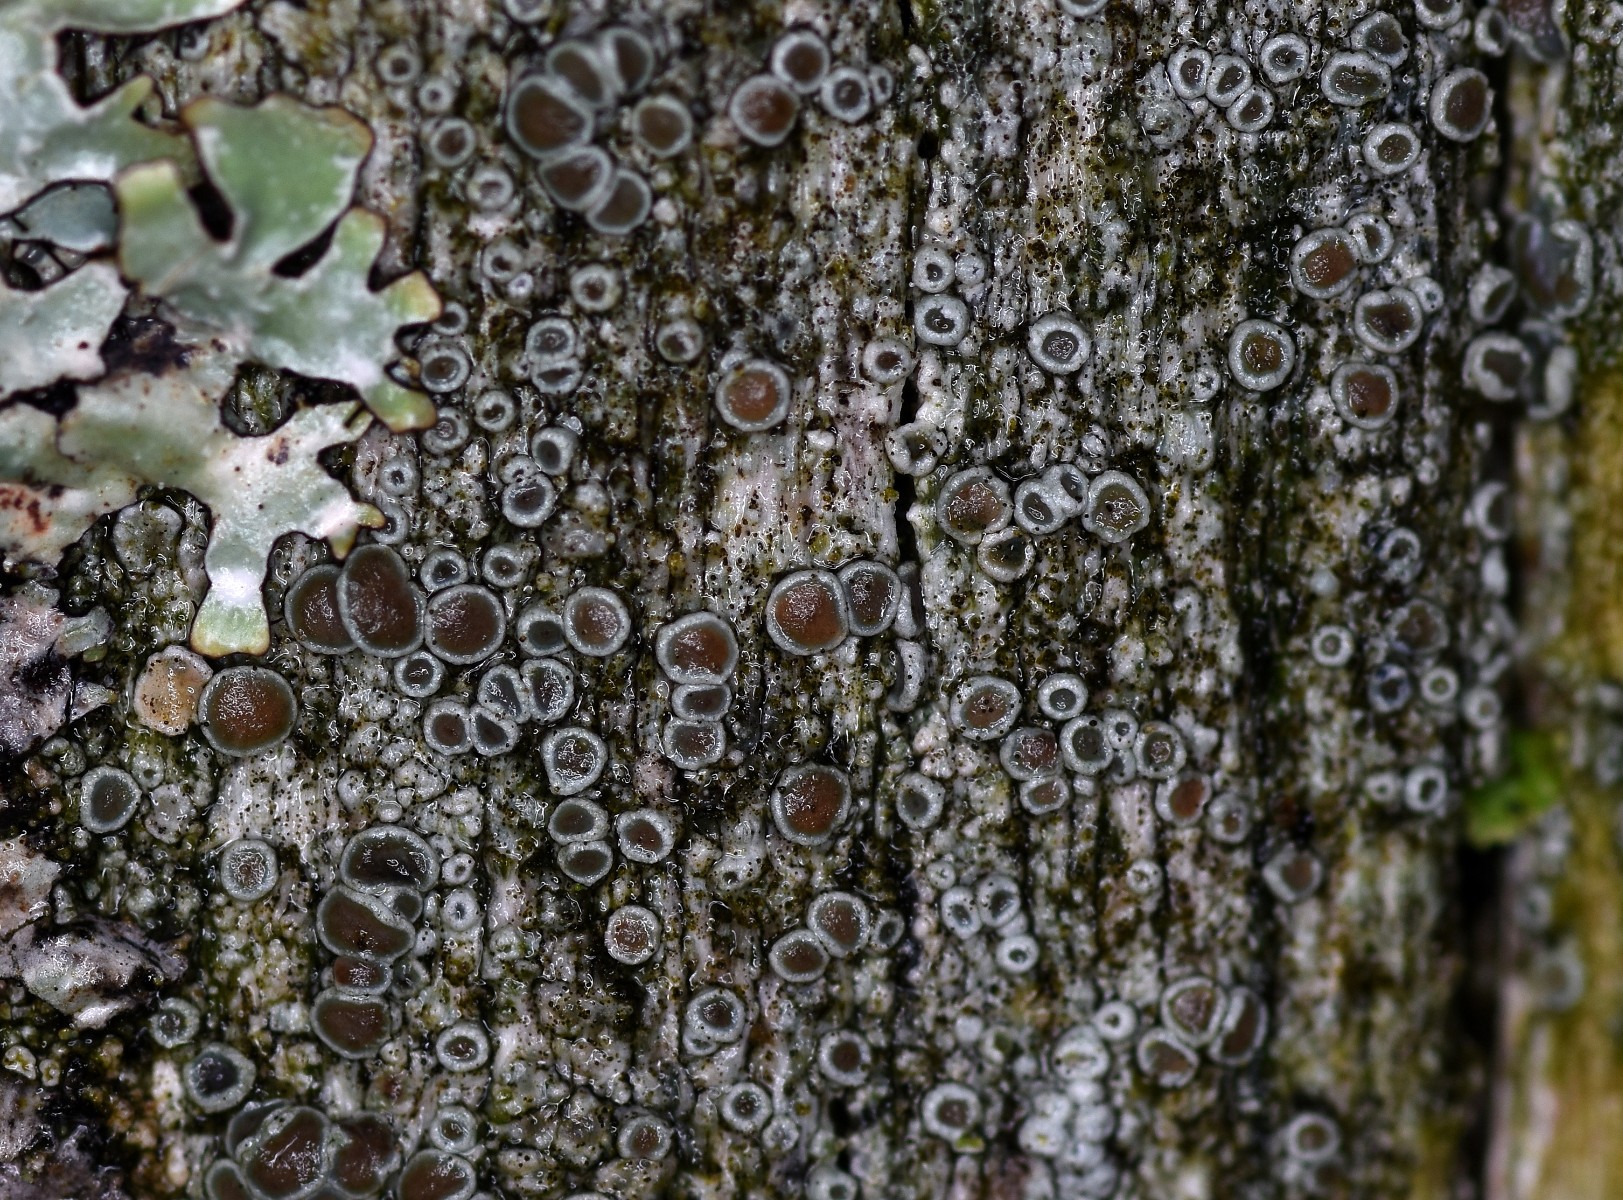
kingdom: Fungi
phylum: Ascomycota
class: Lecanoromycetes
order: Lecanorales
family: Lecanoraceae
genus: Lecanora
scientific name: Lecanora pulicaris
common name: almindelig kantskivelav
